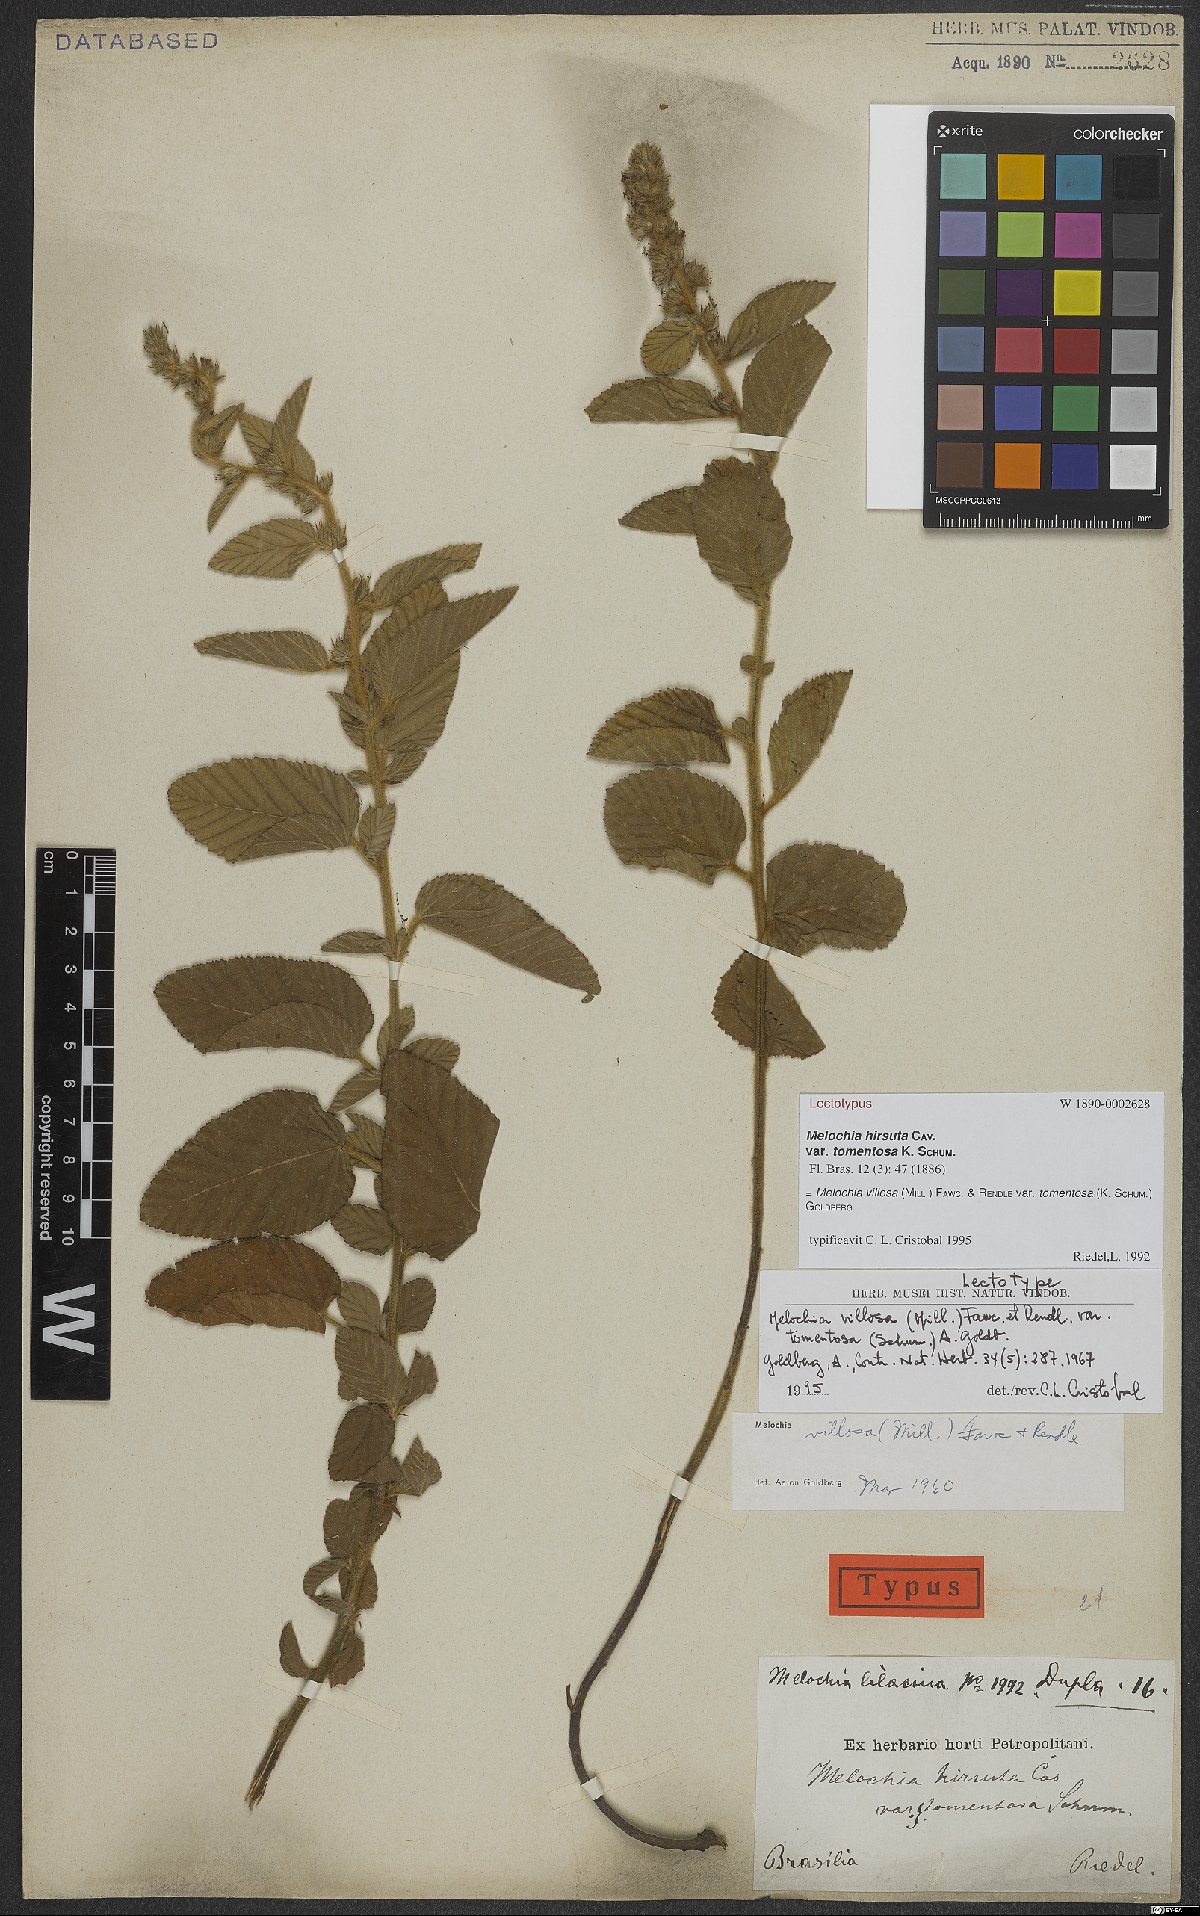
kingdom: Plantae
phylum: Tracheophyta
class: Magnoliopsida
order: Malvales
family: Malvaceae
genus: Melochia
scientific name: Melochia spicata
